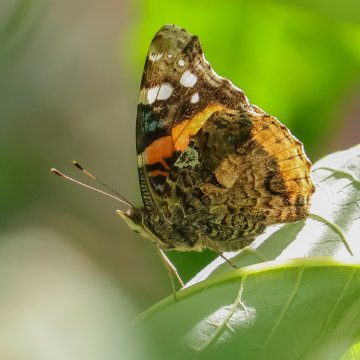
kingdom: Animalia
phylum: Arthropoda
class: Insecta
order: Lepidoptera
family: Nymphalidae
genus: Limenitis
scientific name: Limenitis arthemis
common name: Red-spotted Admiral
